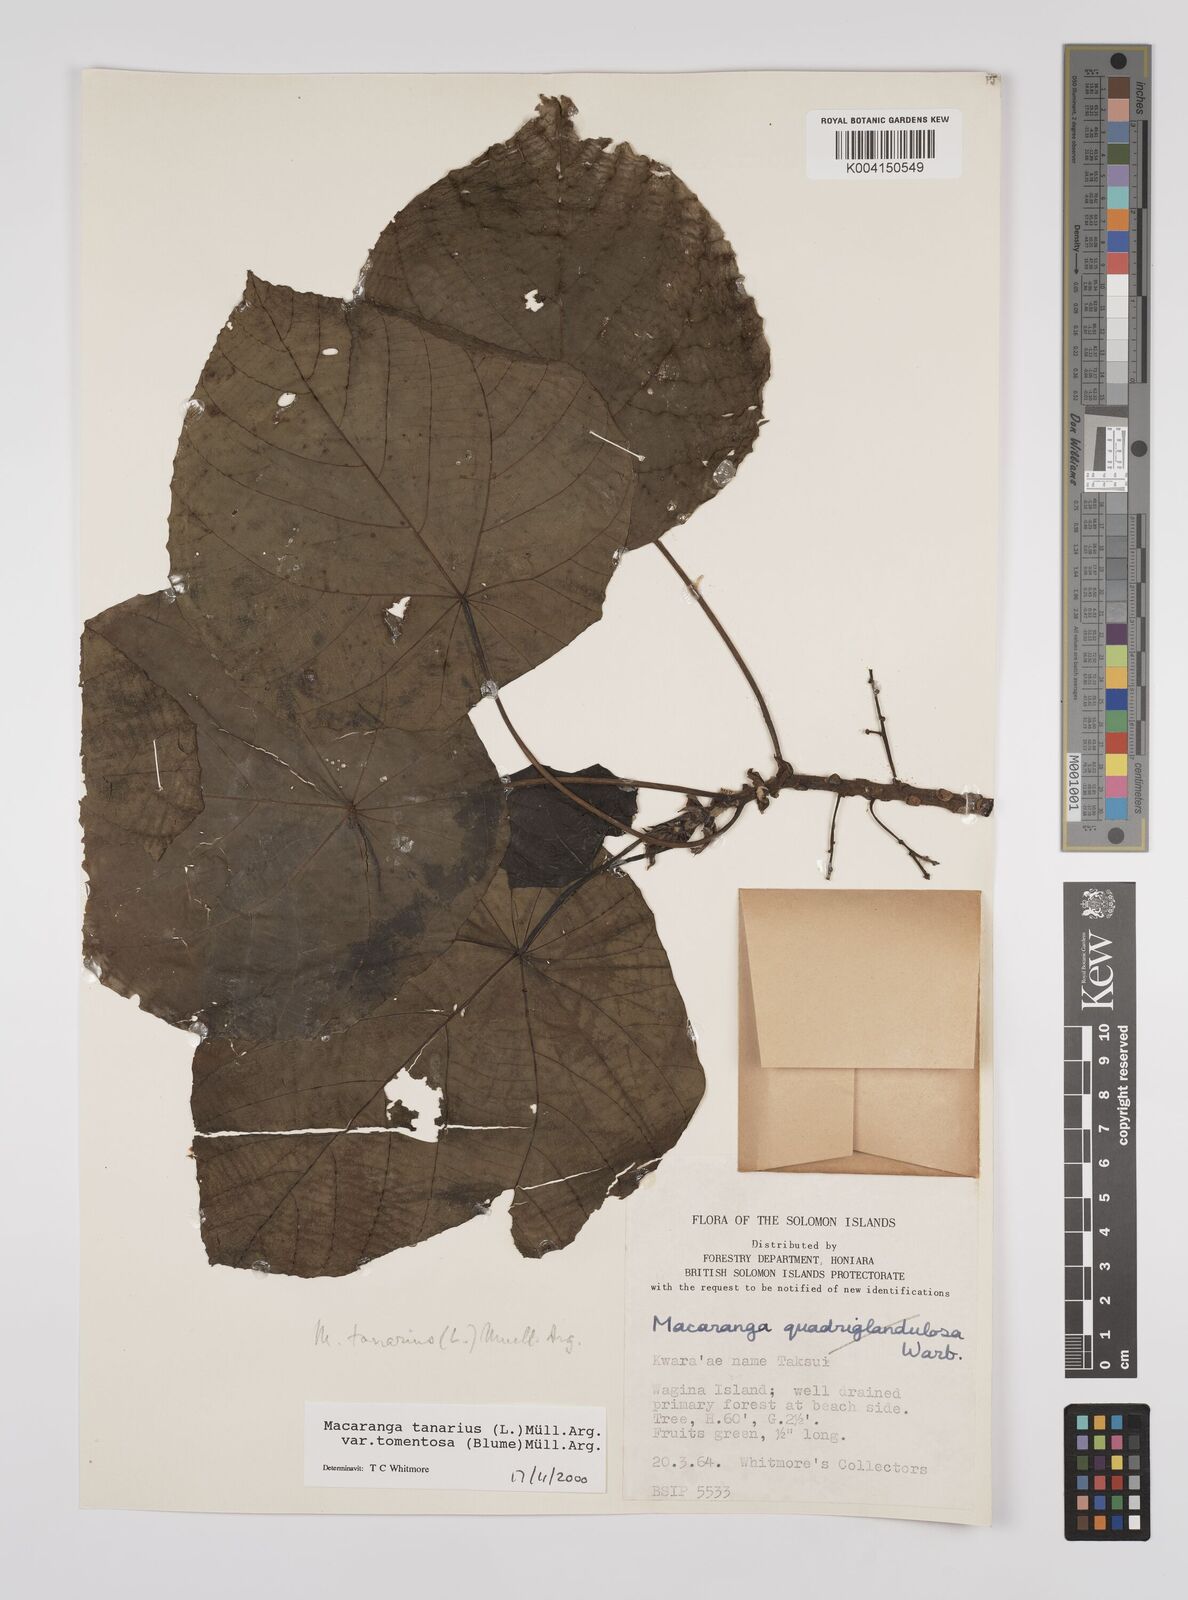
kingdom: Plantae
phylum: Tracheophyta
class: Magnoliopsida
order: Malpighiales
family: Euphorbiaceae
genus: Macaranga
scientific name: Macaranga tanarius
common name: Parasol leaf tree
